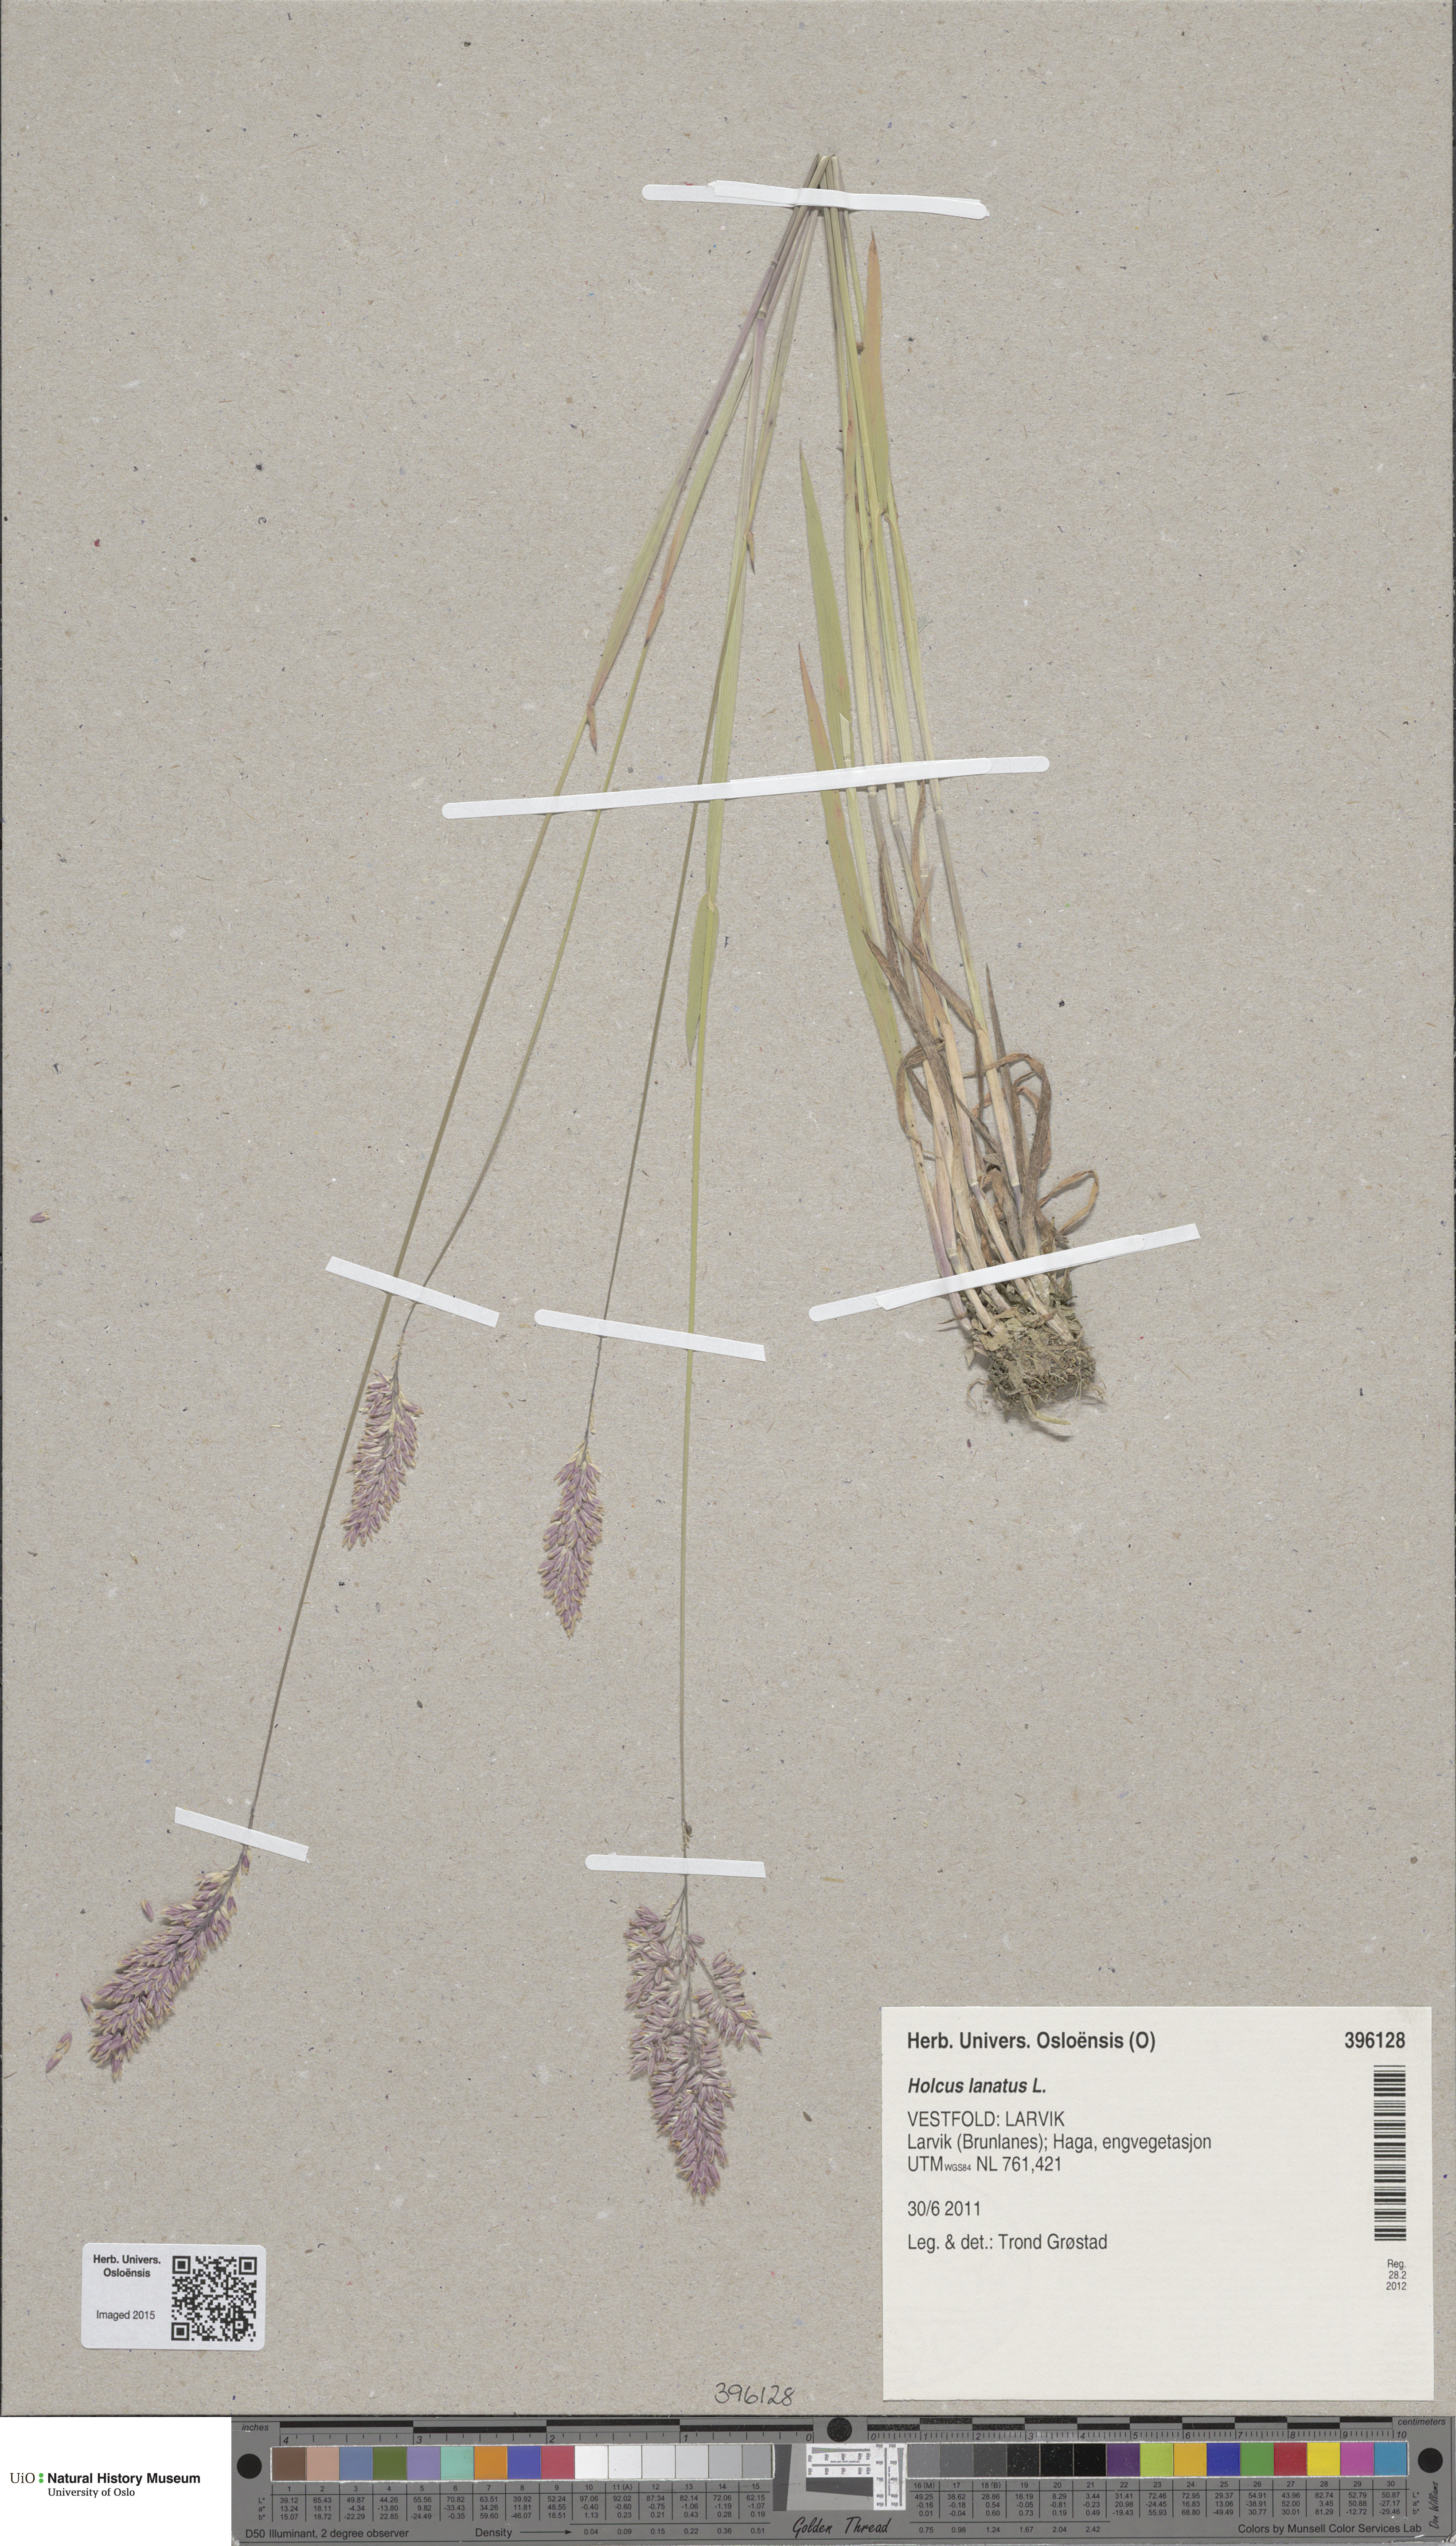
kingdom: Plantae
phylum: Tracheophyta
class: Liliopsida
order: Poales
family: Poaceae
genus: Holcus
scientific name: Holcus lanatus
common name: Yorkshire-fog
